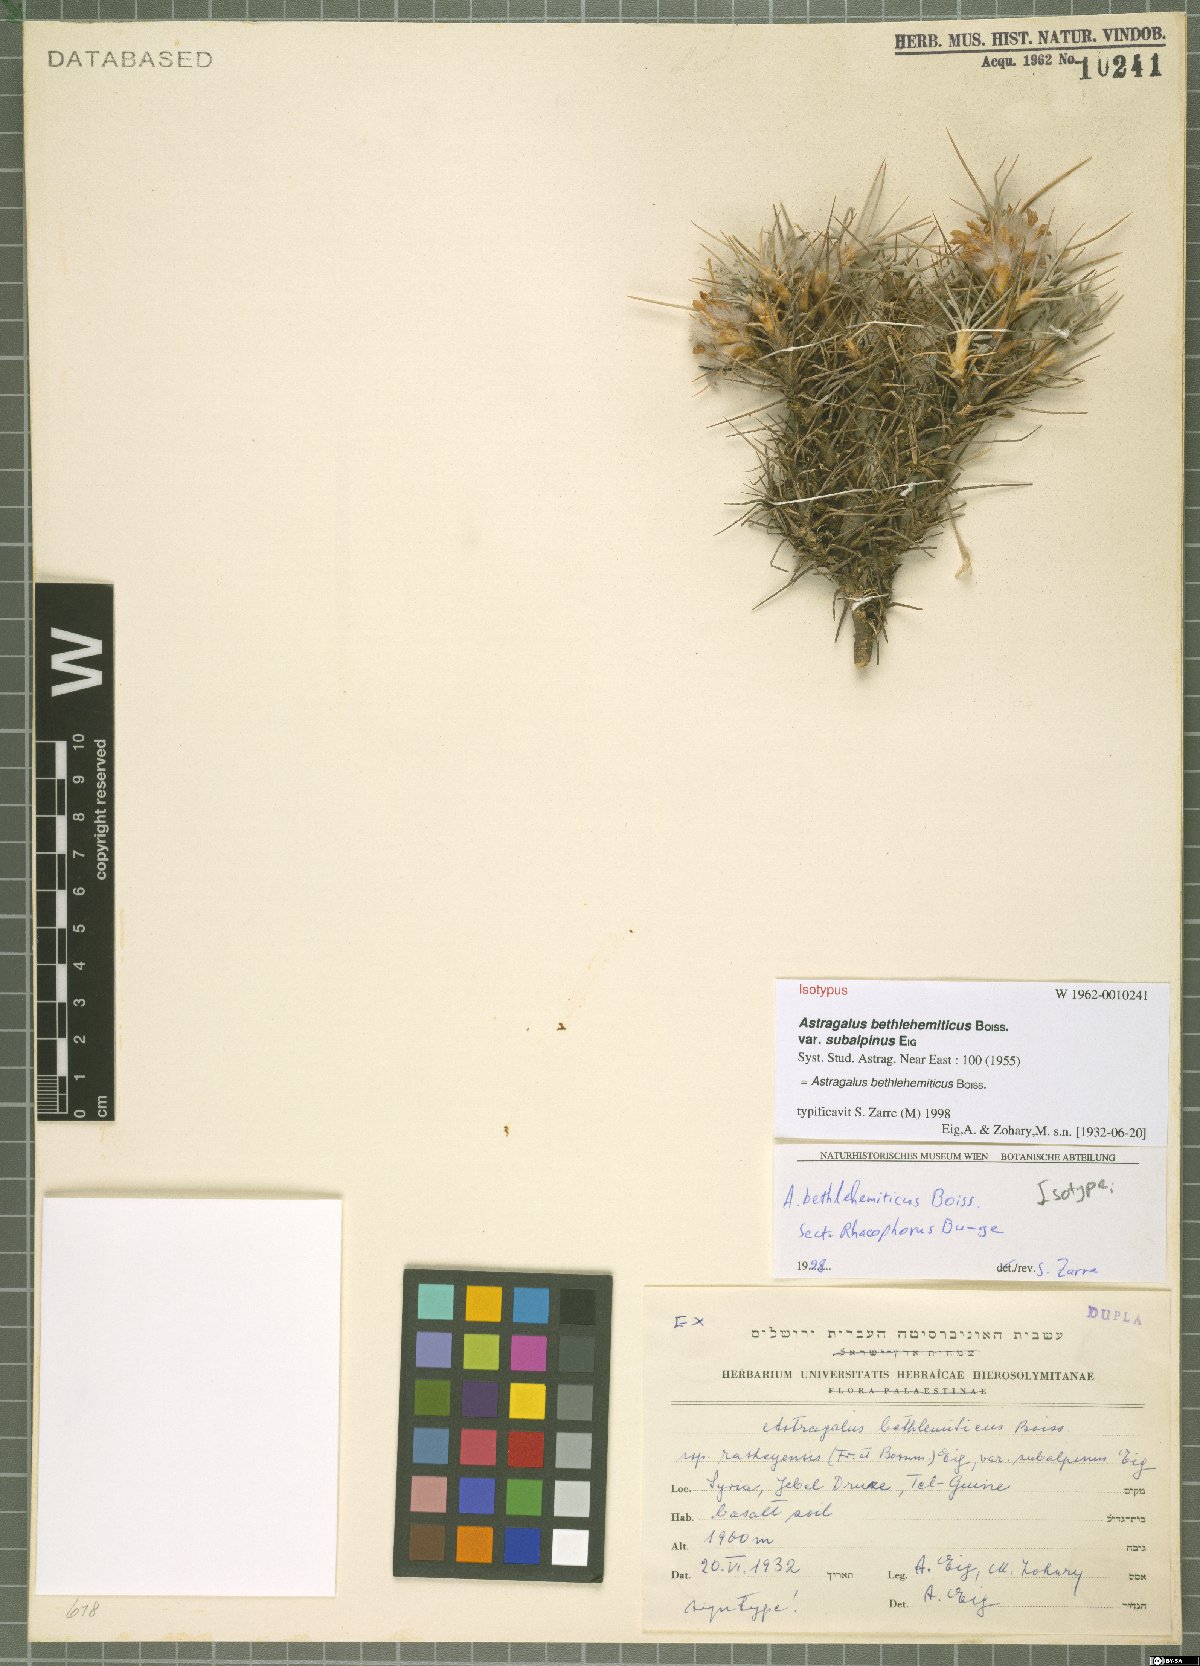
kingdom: Plantae
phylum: Tracheophyta
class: Magnoliopsida
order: Fabales
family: Fabaceae
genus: Astragalus
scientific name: Astragalus bethlehemiticus
